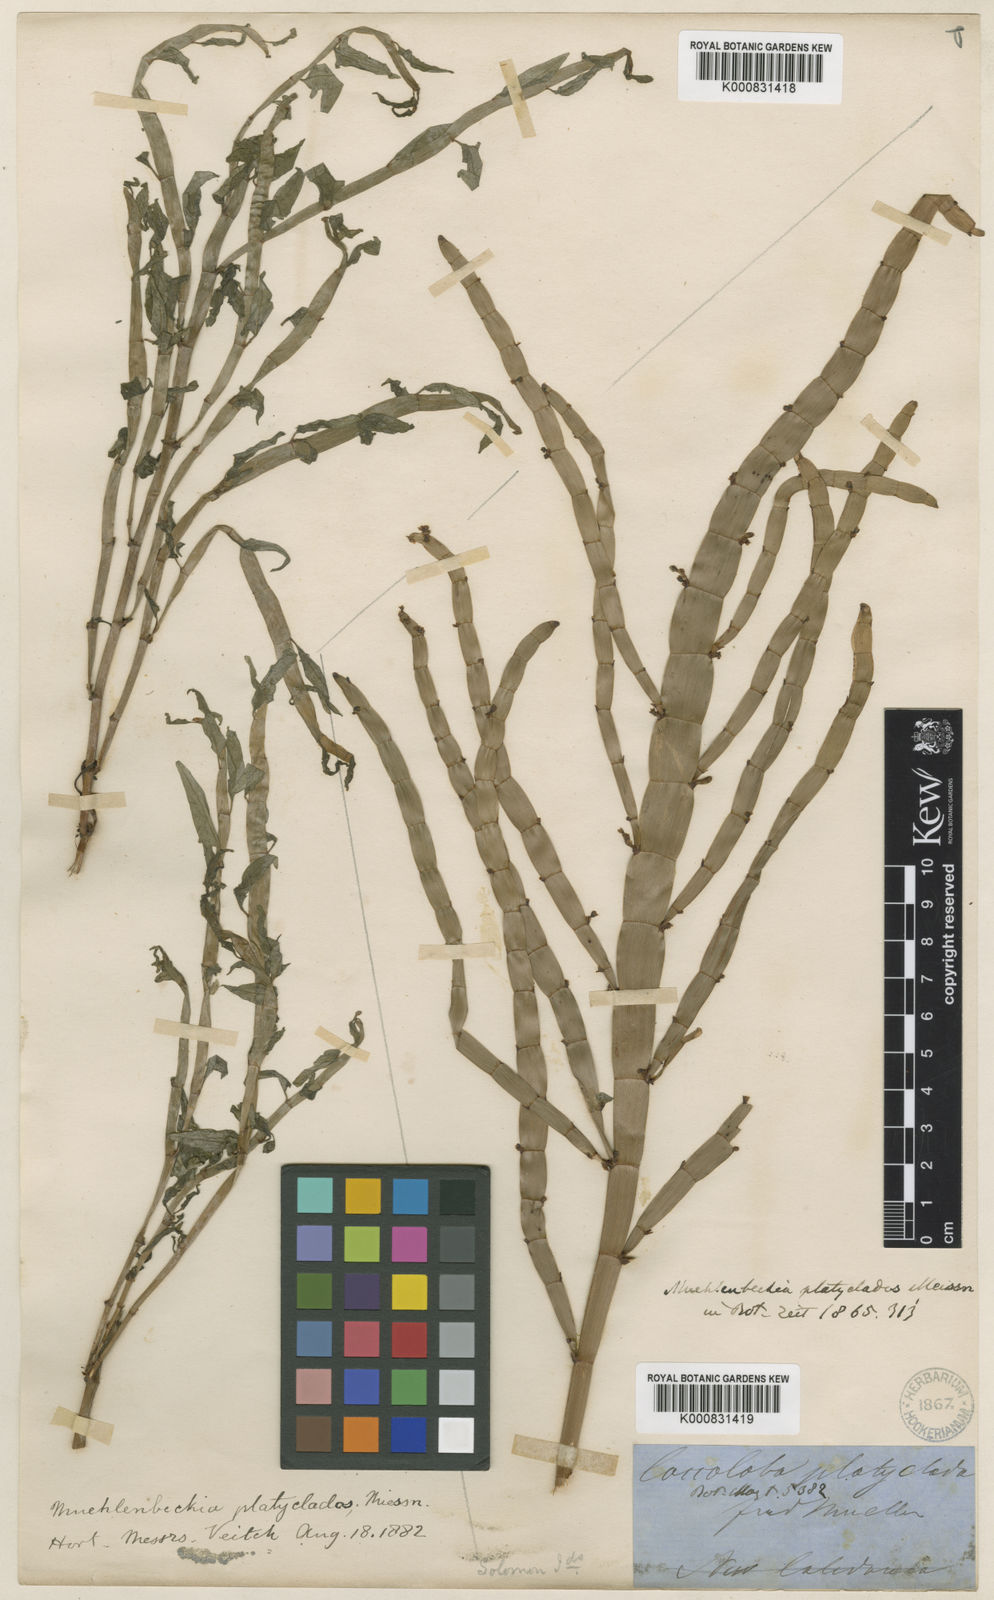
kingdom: Plantae
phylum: Tracheophyta
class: Magnoliopsida
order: Caryophyllales
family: Polygonaceae
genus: Muehlenbeckia
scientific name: Muehlenbeckia platyclada
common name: Tapewormplant
